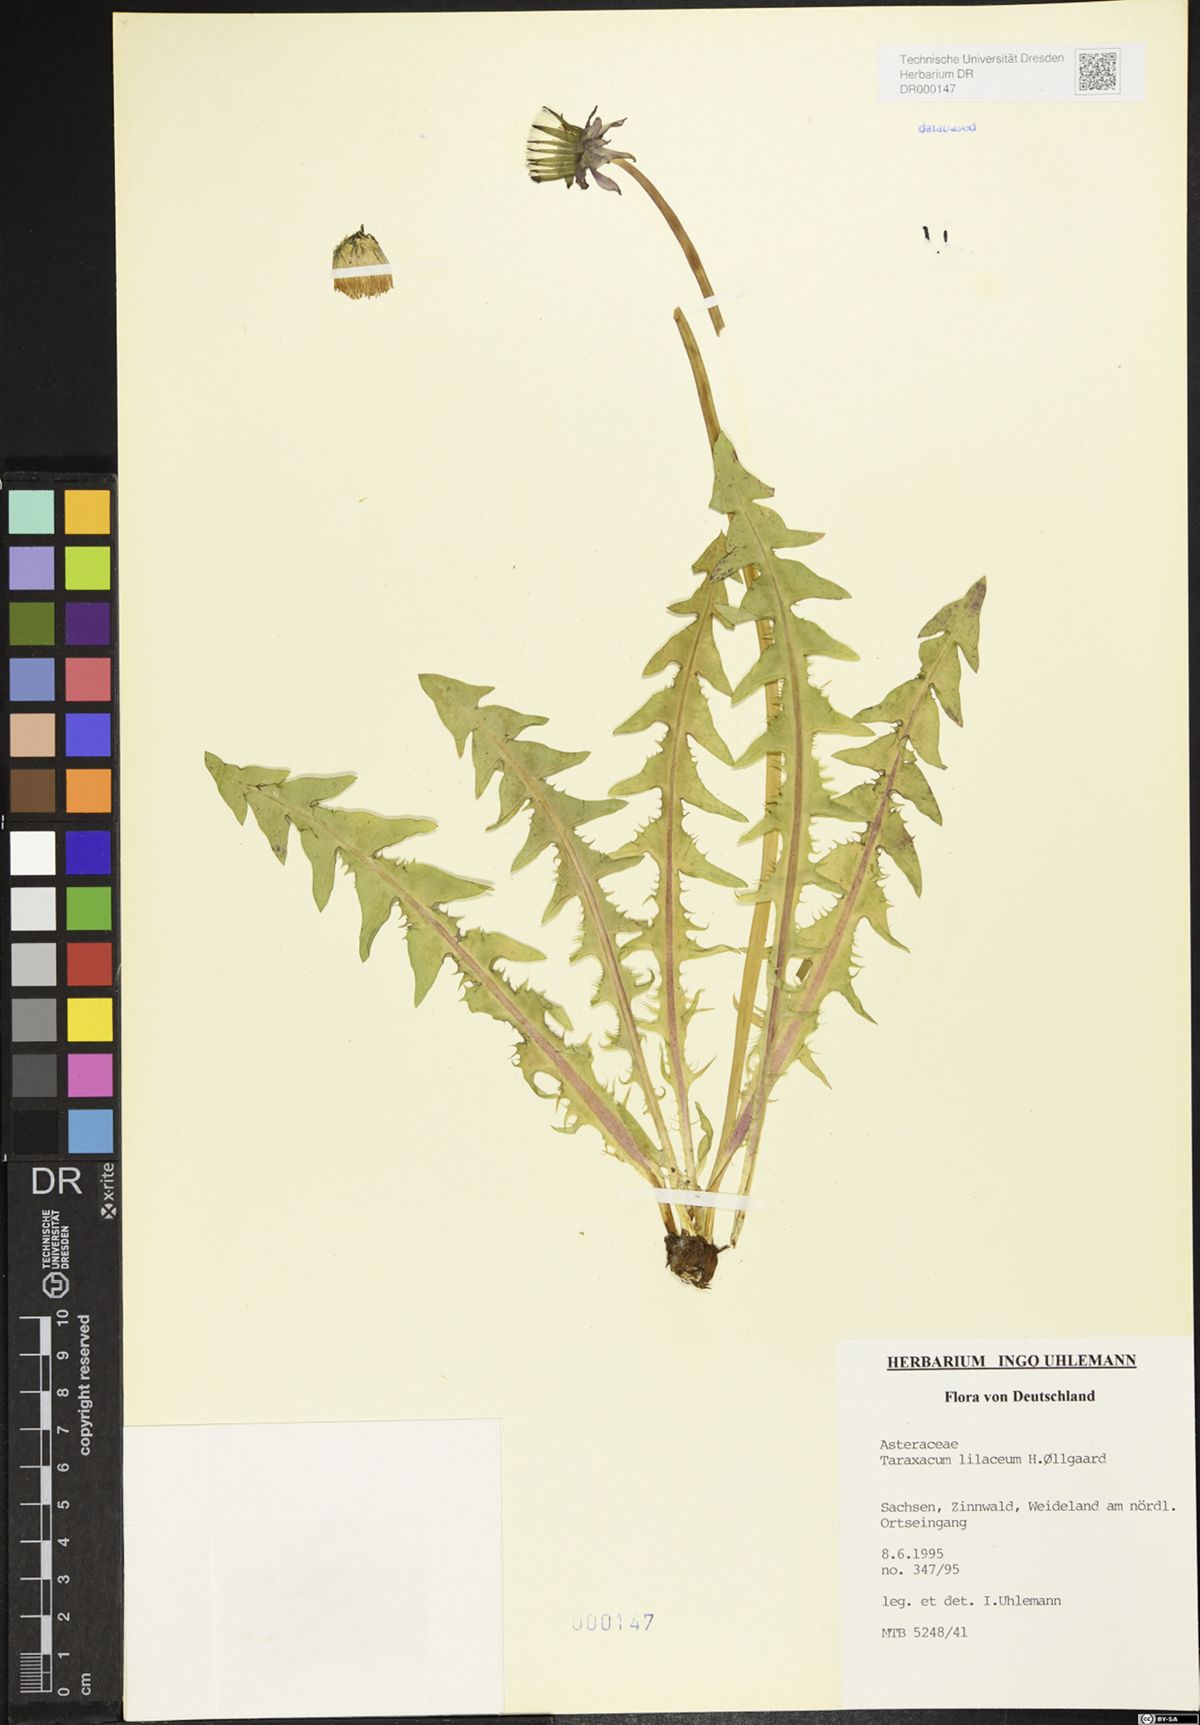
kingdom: Plantae
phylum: Tracheophyta
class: Magnoliopsida
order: Asterales
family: Asteraceae
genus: Taraxacum
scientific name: Taraxacum floccosum
